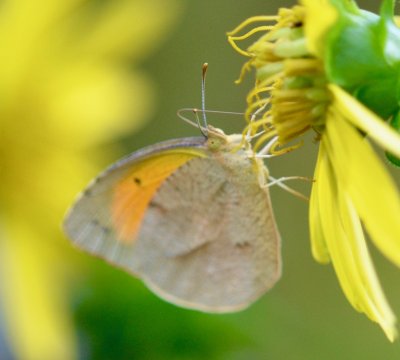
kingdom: Animalia
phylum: Arthropoda
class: Insecta
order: Lepidoptera
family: Pieridae
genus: Abaeis
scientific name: Abaeis nicippe
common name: Sleepy Orange
